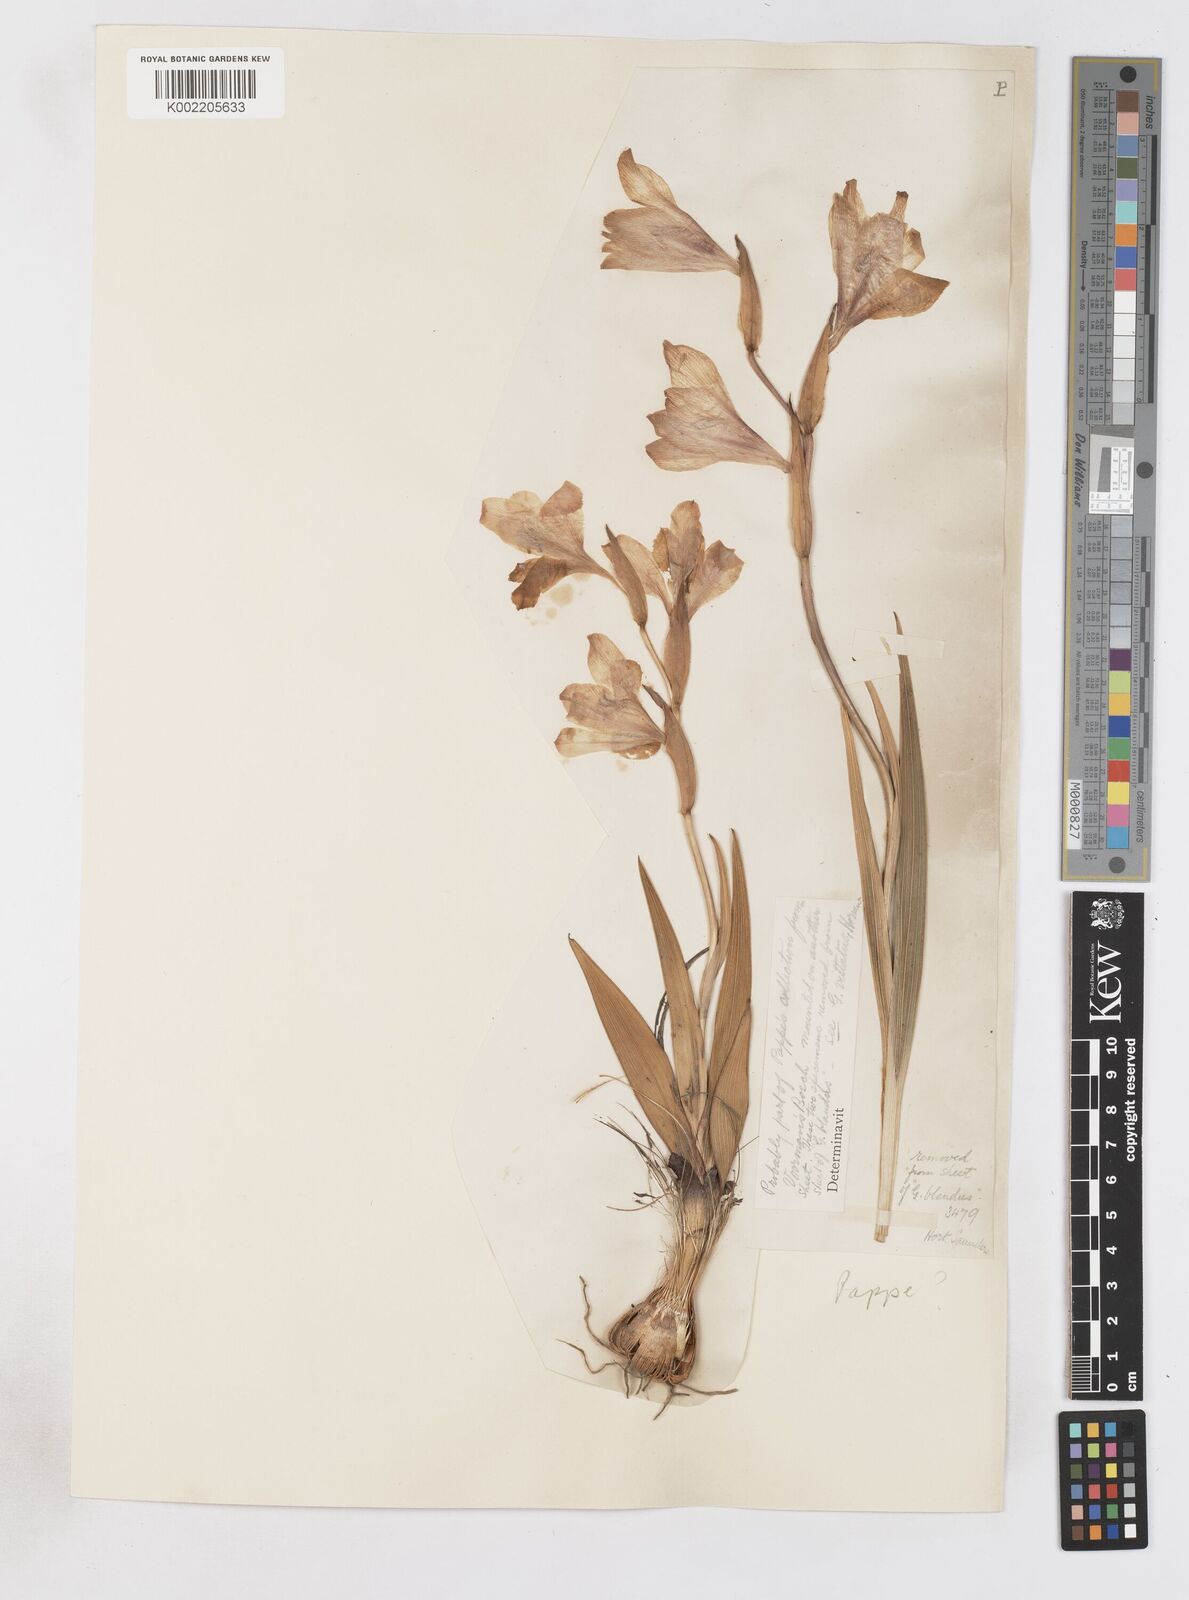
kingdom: Plantae
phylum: Tracheophyta
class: Liliopsida
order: Asparagales
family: Iridaceae
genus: Gladiolus
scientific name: Gladiolus grandiflorus
